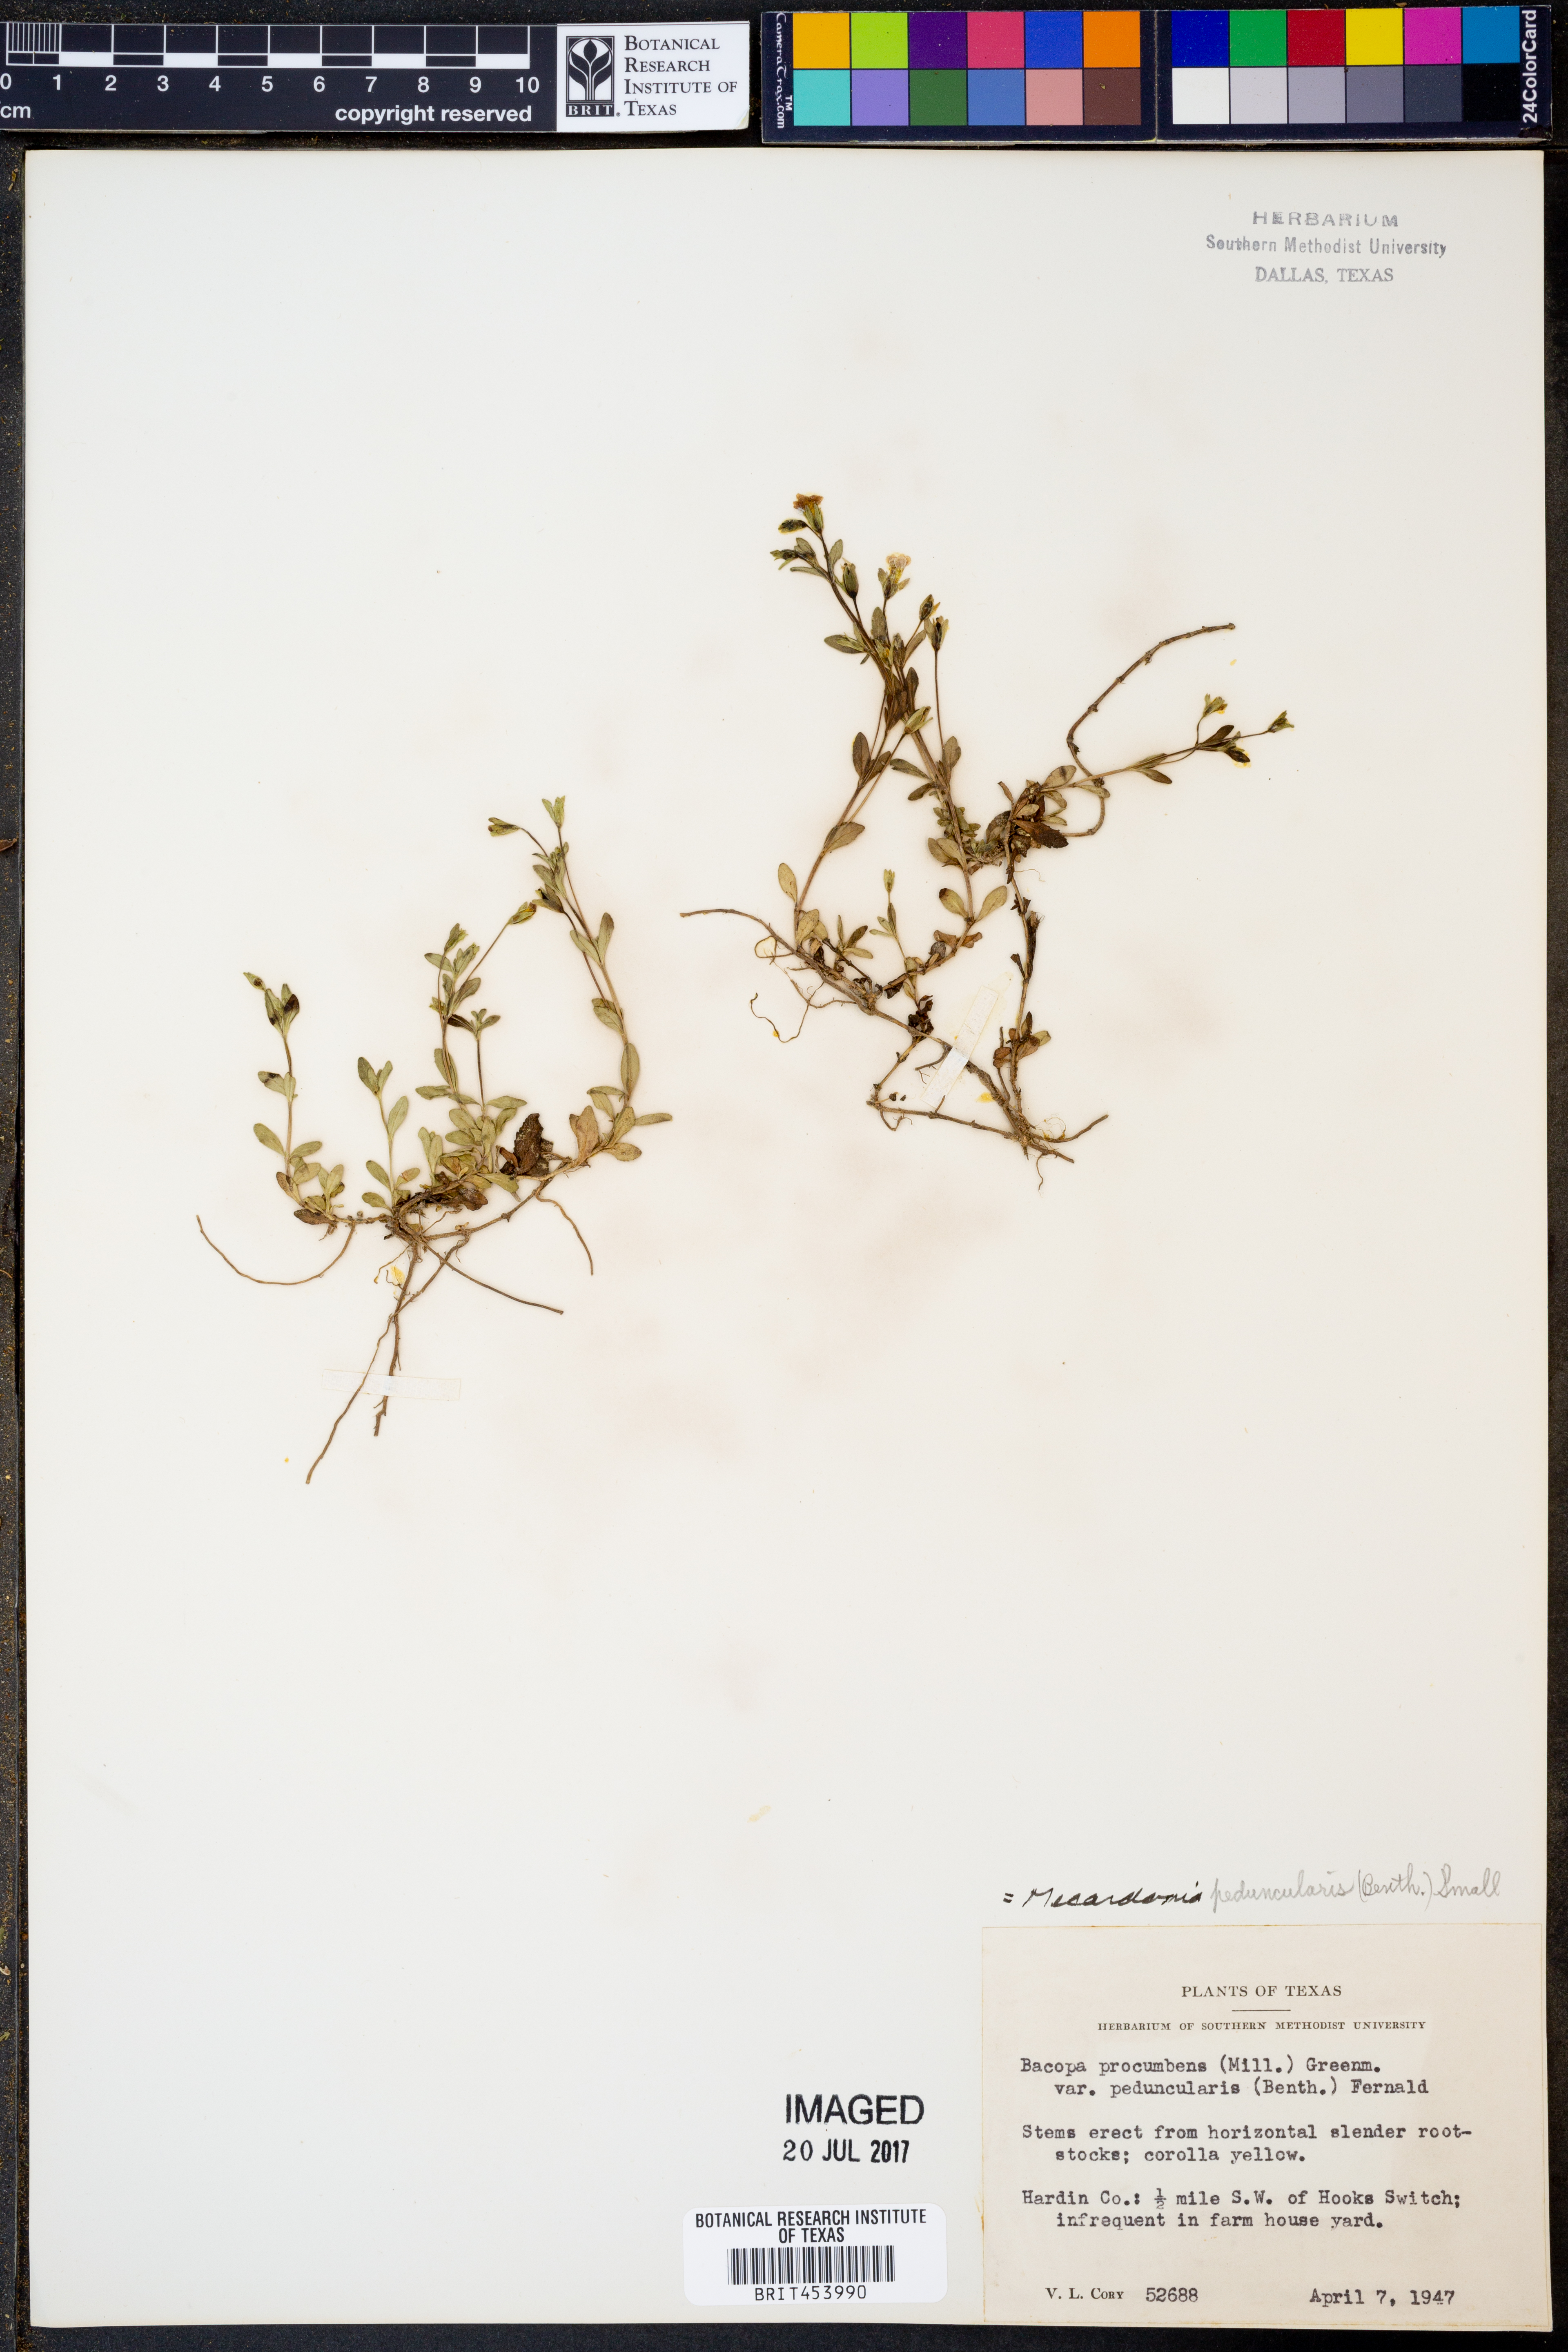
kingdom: Plantae
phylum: Tracheophyta
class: Magnoliopsida
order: Lamiales
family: Plantaginaceae
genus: Mecardonia
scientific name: Mecardonia procumbens
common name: Baby jump-up
